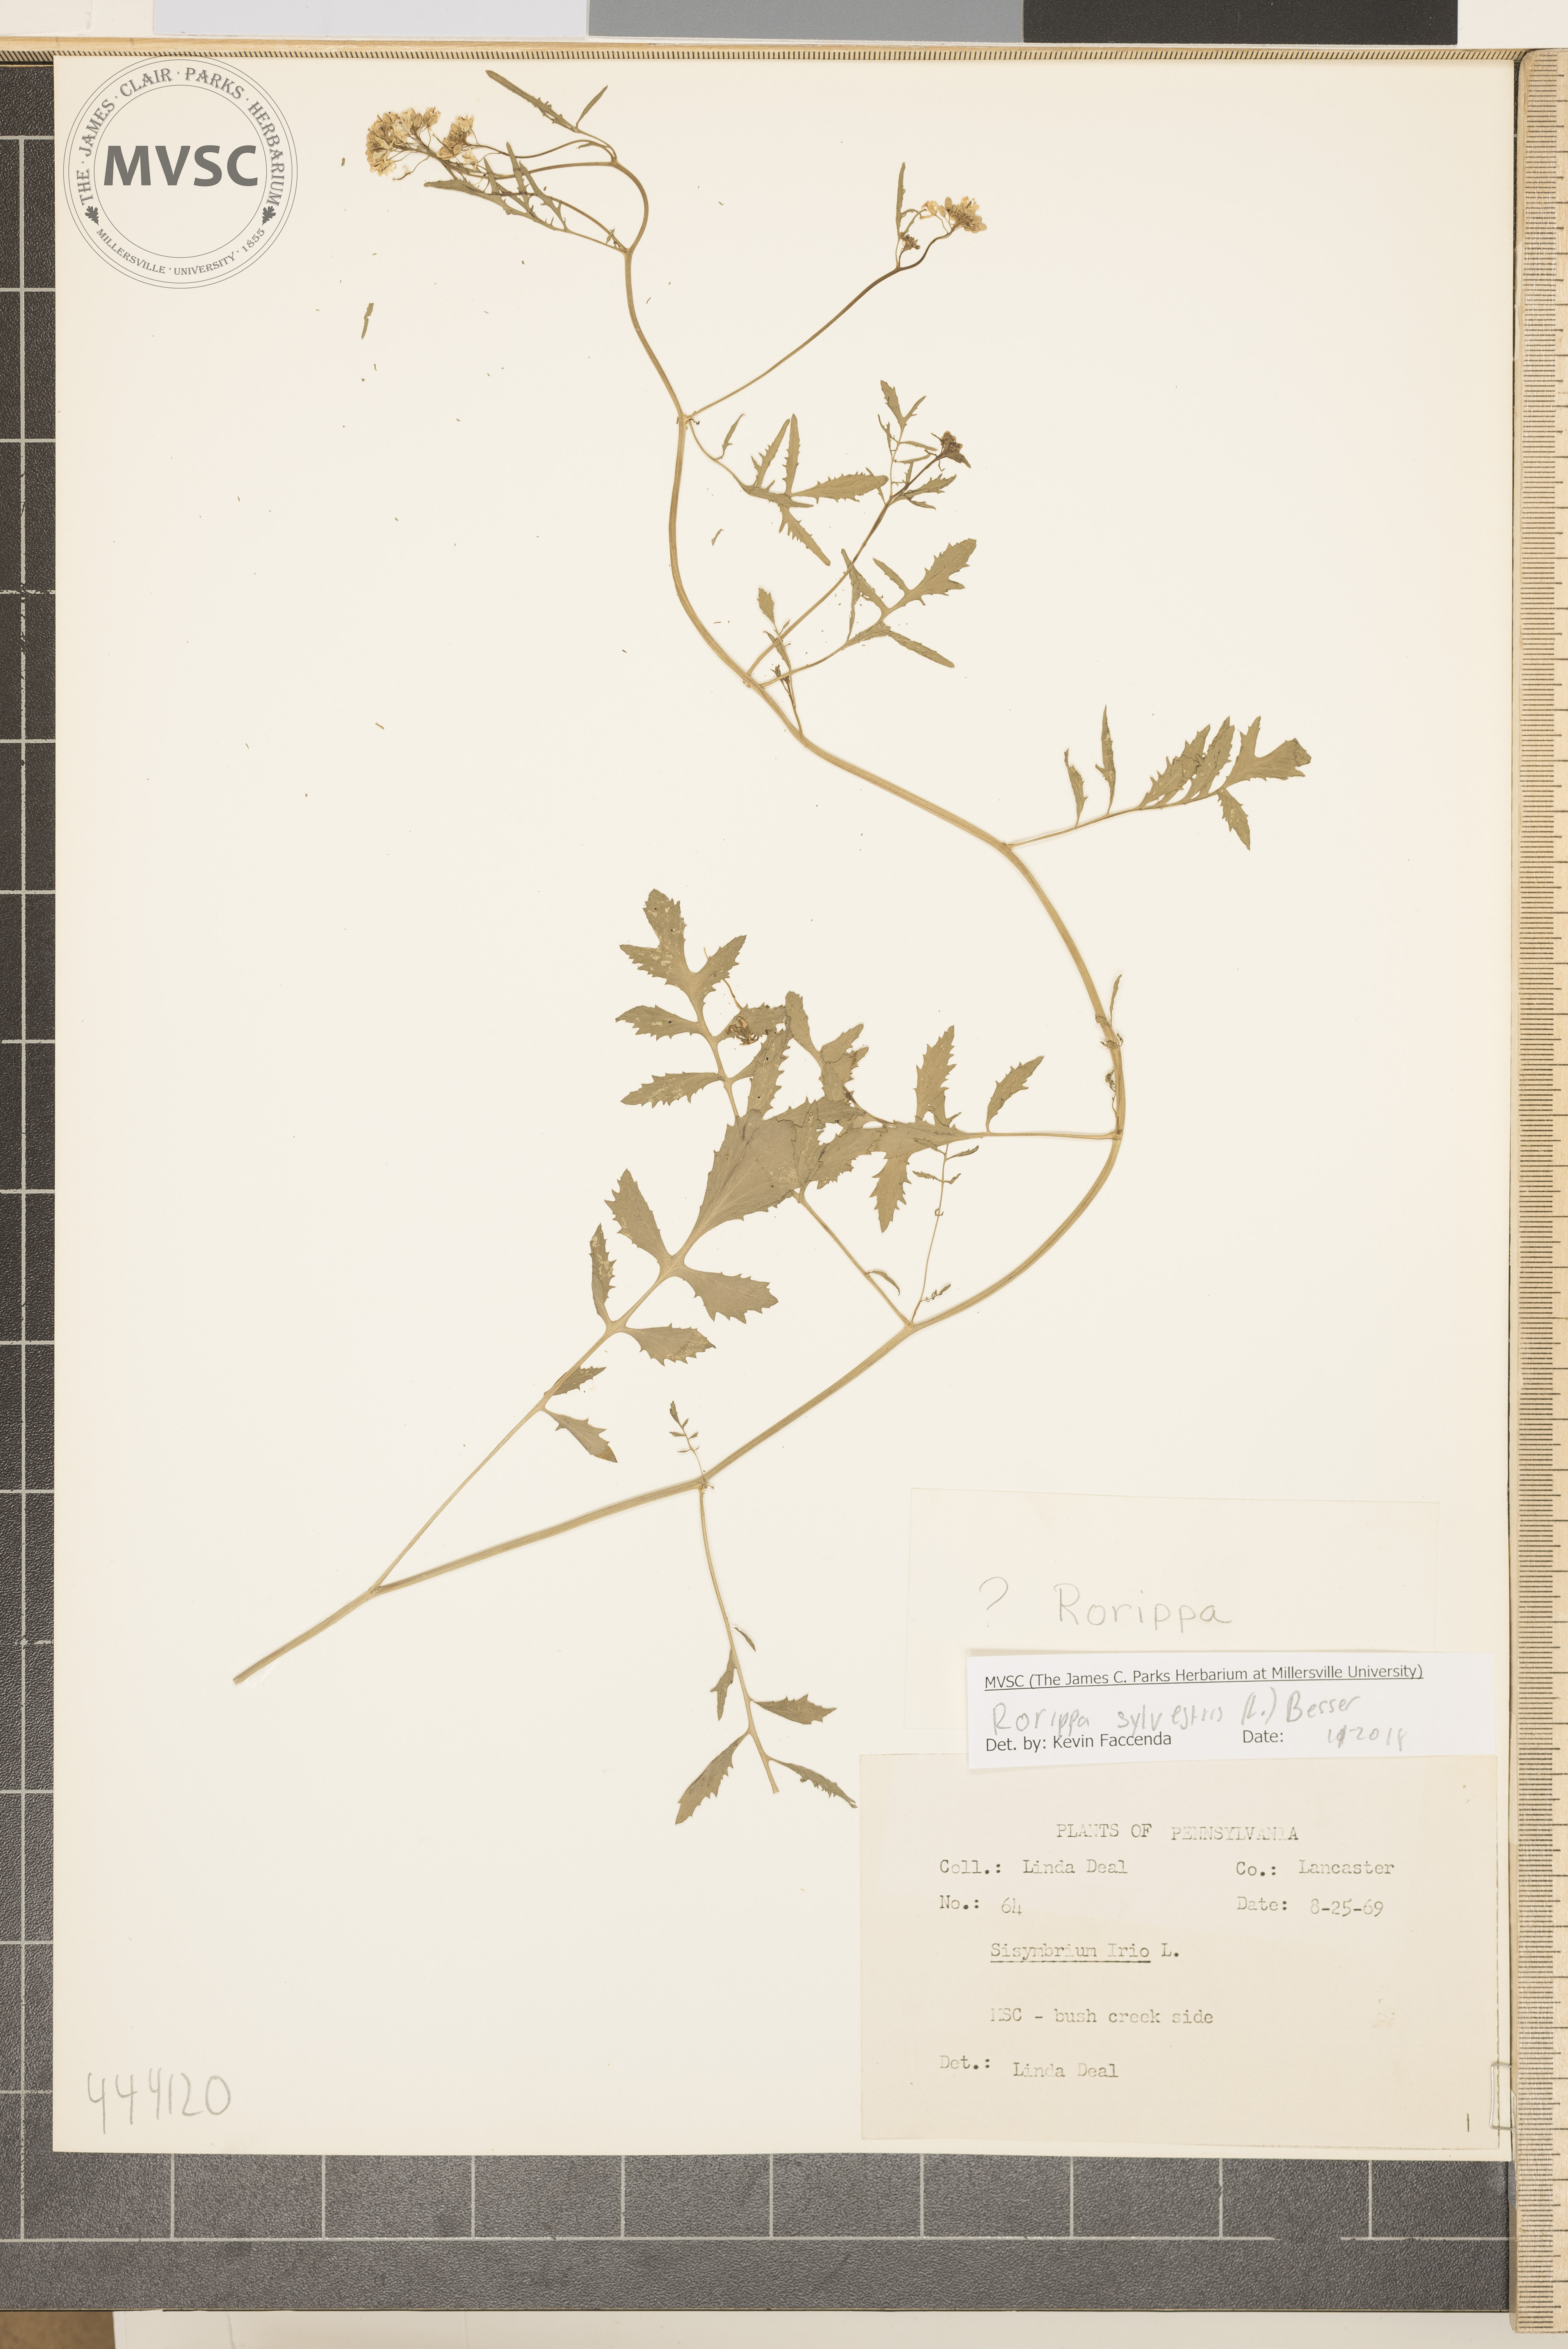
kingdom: Plantae
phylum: Tracheophyta
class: Magnoliopsida
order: Brassicales
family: Brassicaceae
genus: Rorippa
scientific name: Rorippa sylvestris
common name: Creeping yellowcress
